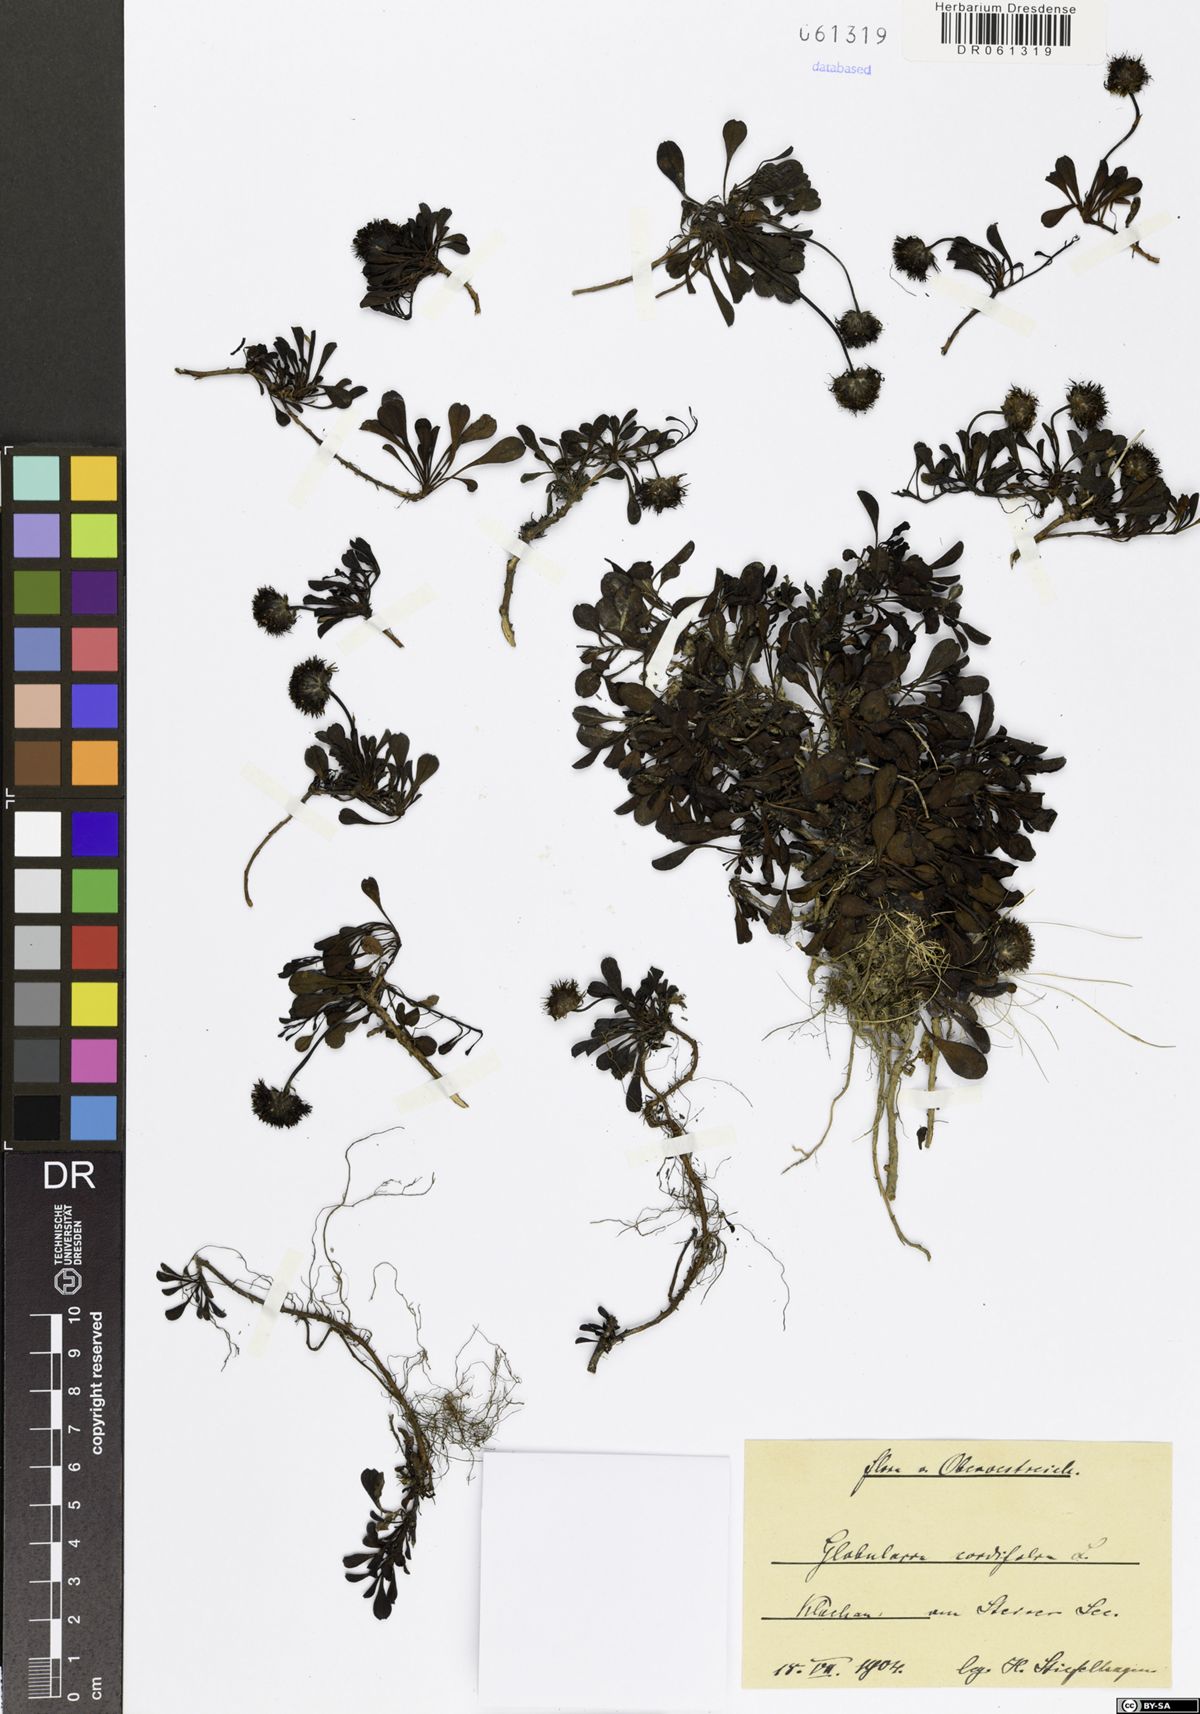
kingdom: Plantae
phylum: Tracheophyta
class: Magnoliopsida
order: Lamiales
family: Plantaginaceae
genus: Globularia
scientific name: Globularia cordifolia
